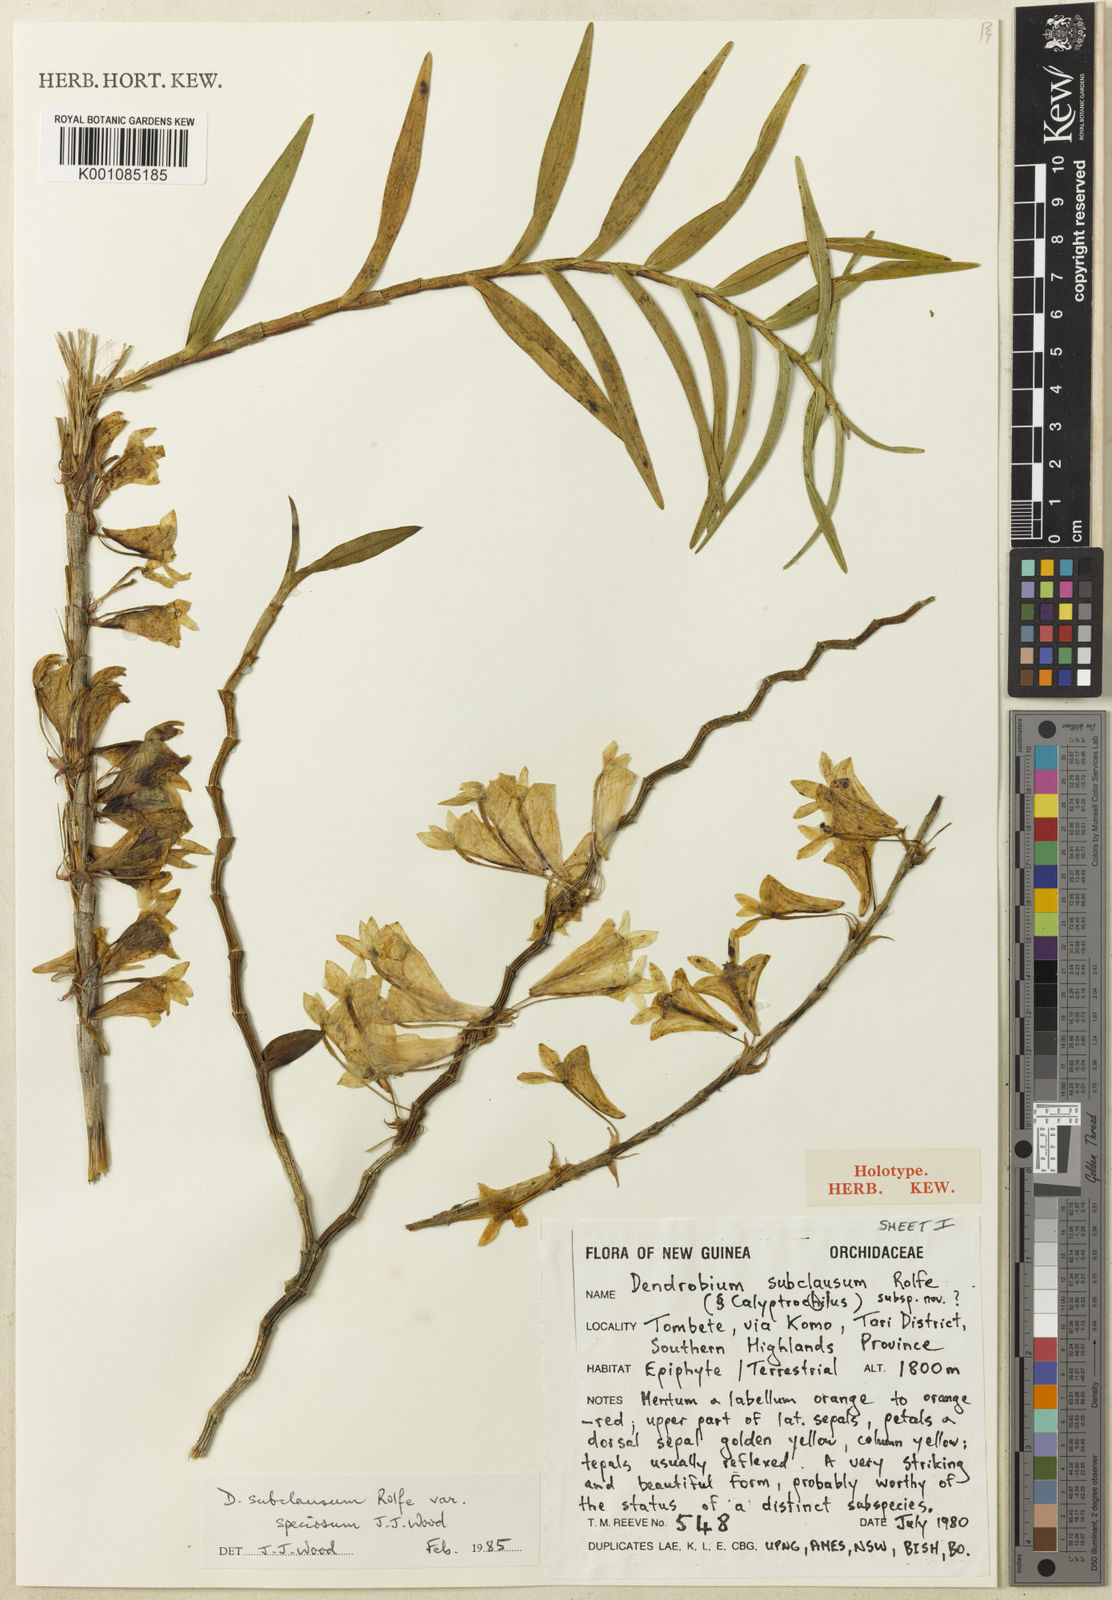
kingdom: Plantae
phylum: Tracheophyta
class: Liliopsida
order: Asparagales
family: Orchidaceae
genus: Dendrobium
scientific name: Dendrobium subclausum
